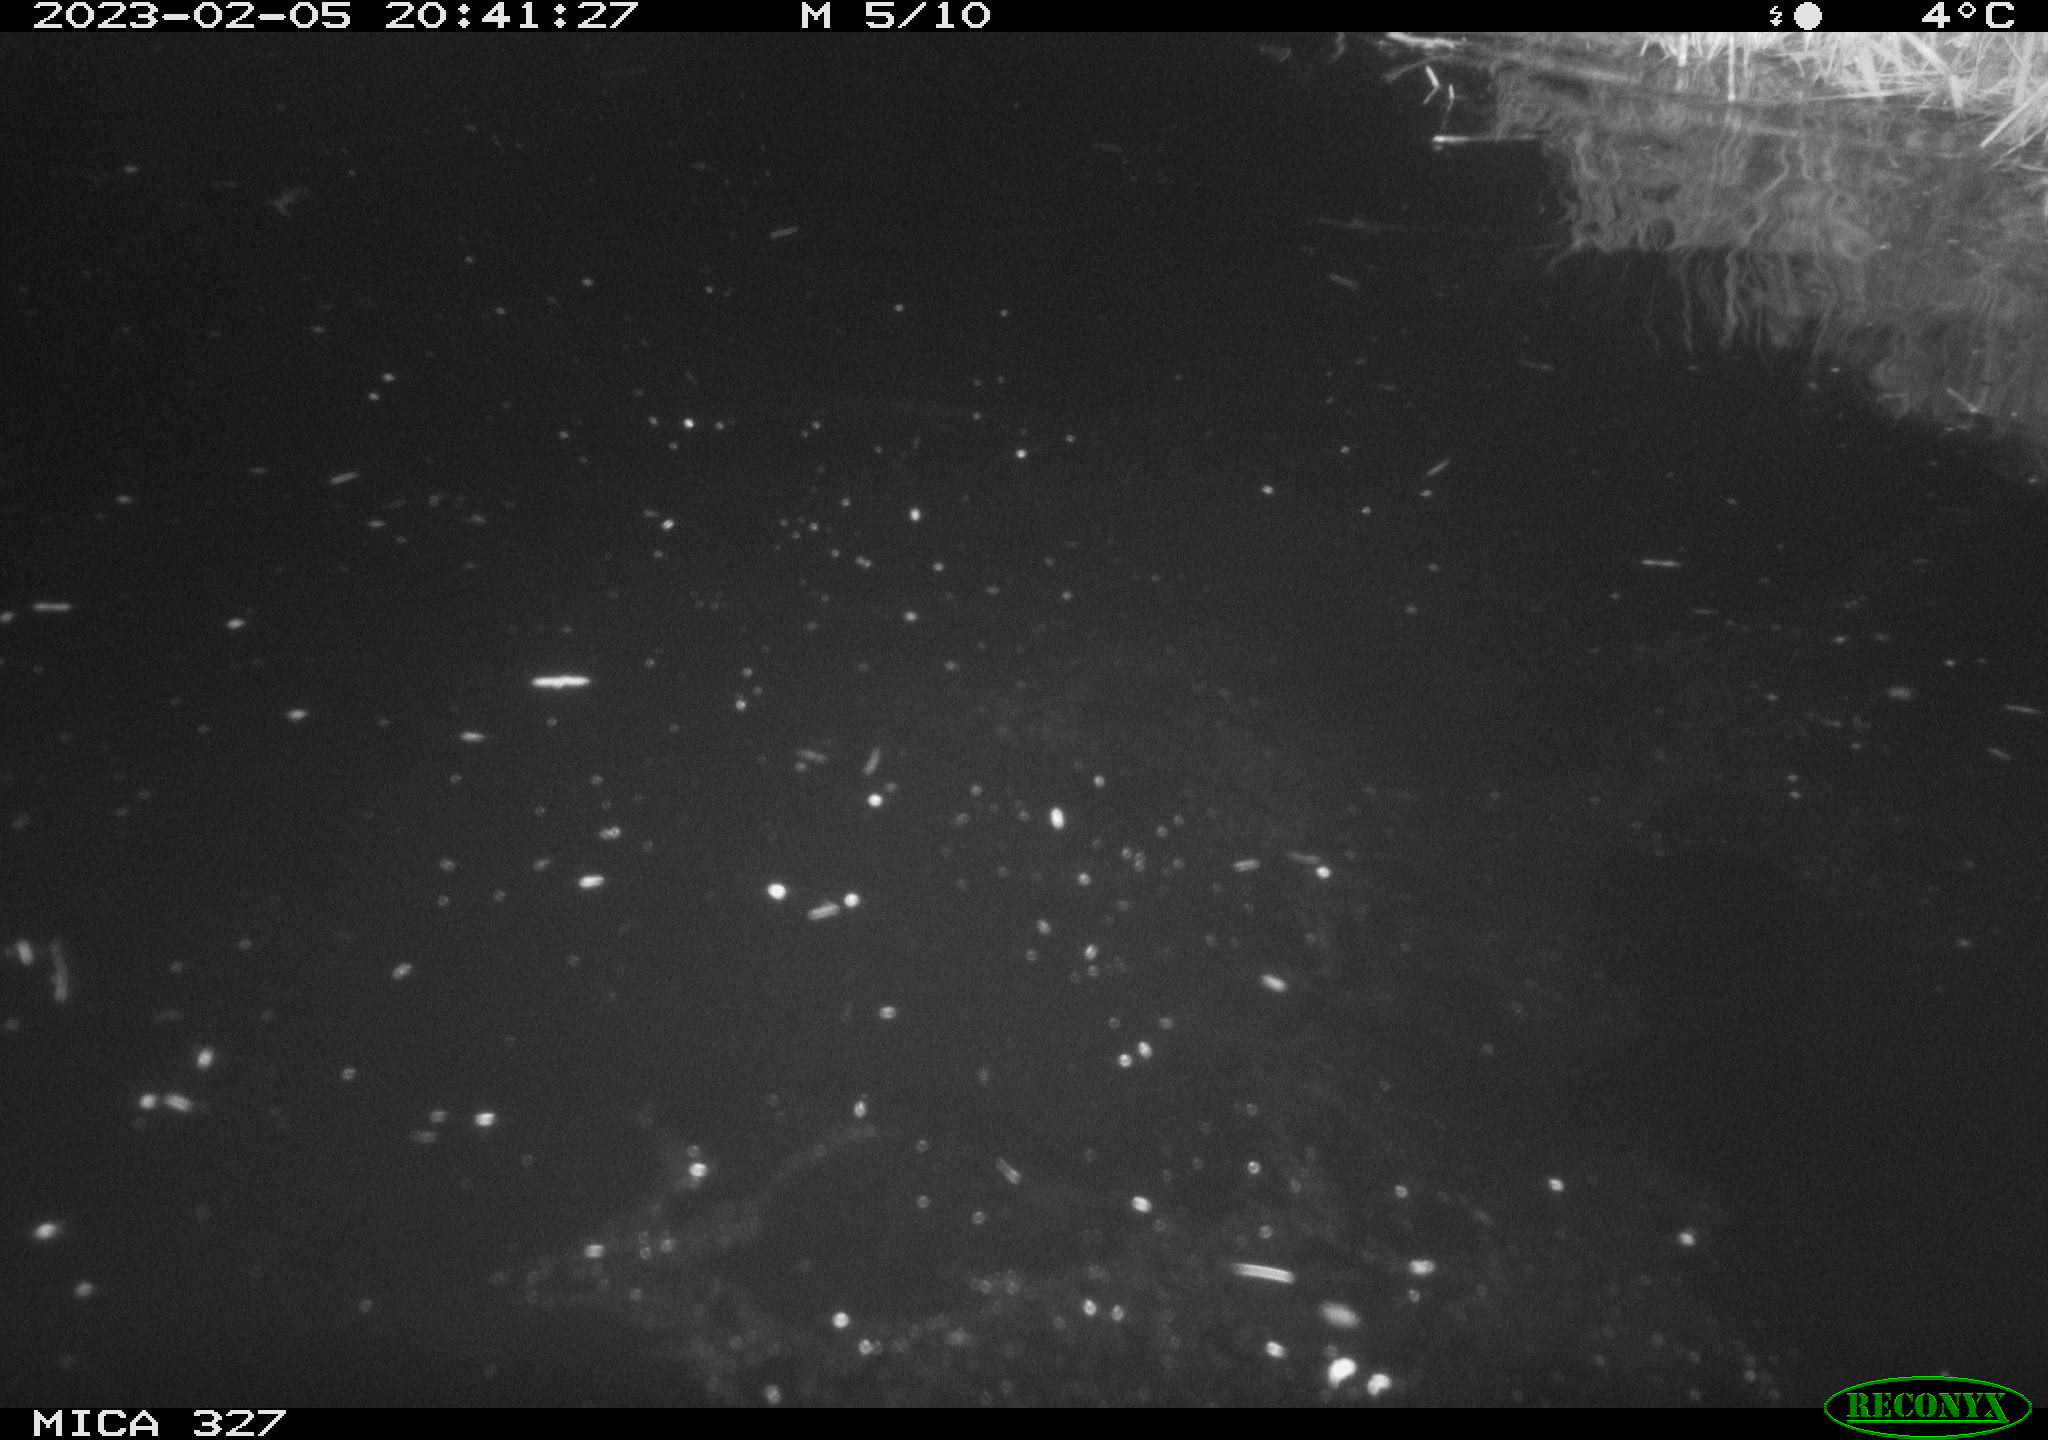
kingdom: Animalia
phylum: Chordata
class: Mammalia
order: Rodentia
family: Cricetidae
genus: Ondatra
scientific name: Ondatra zibethicus
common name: Muskrat
